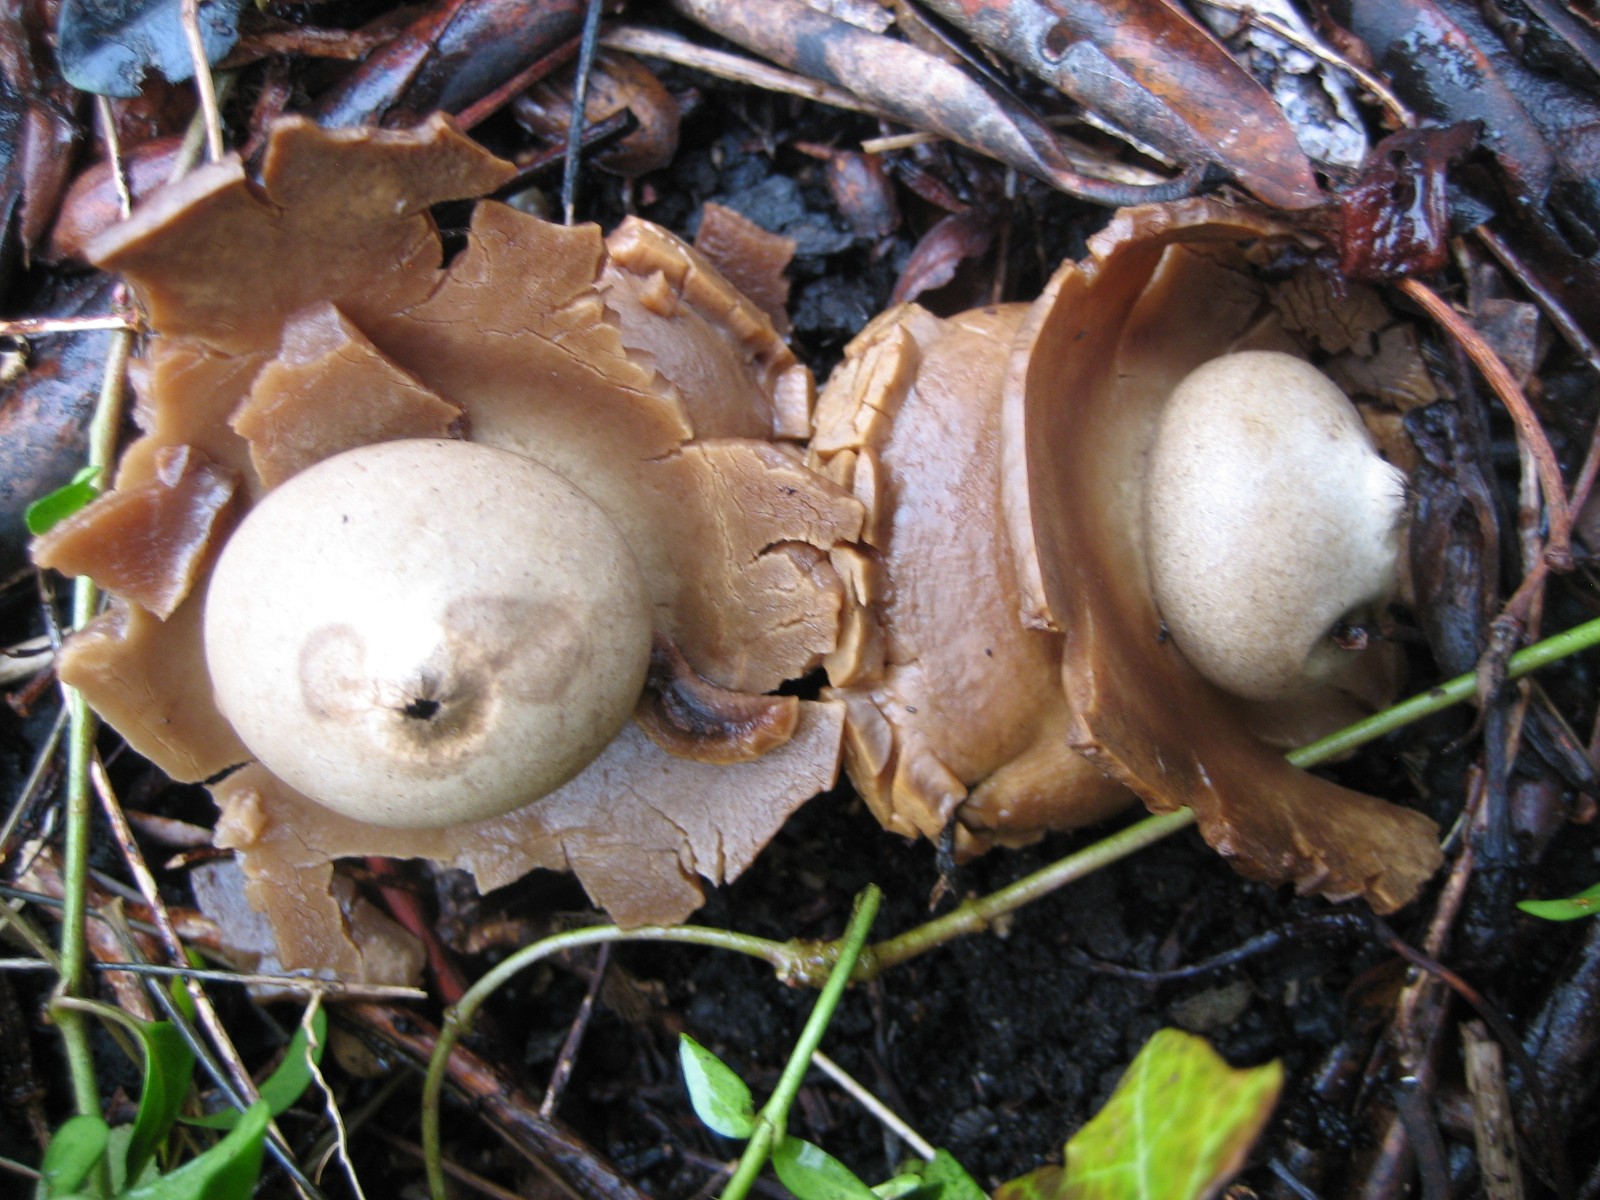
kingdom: Fungi
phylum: Basidiomycota
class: Agaricomycetes
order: Geastrales
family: Geastraceae
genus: Geastrum
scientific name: Geastrum michelianum
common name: kødet stjernebold
